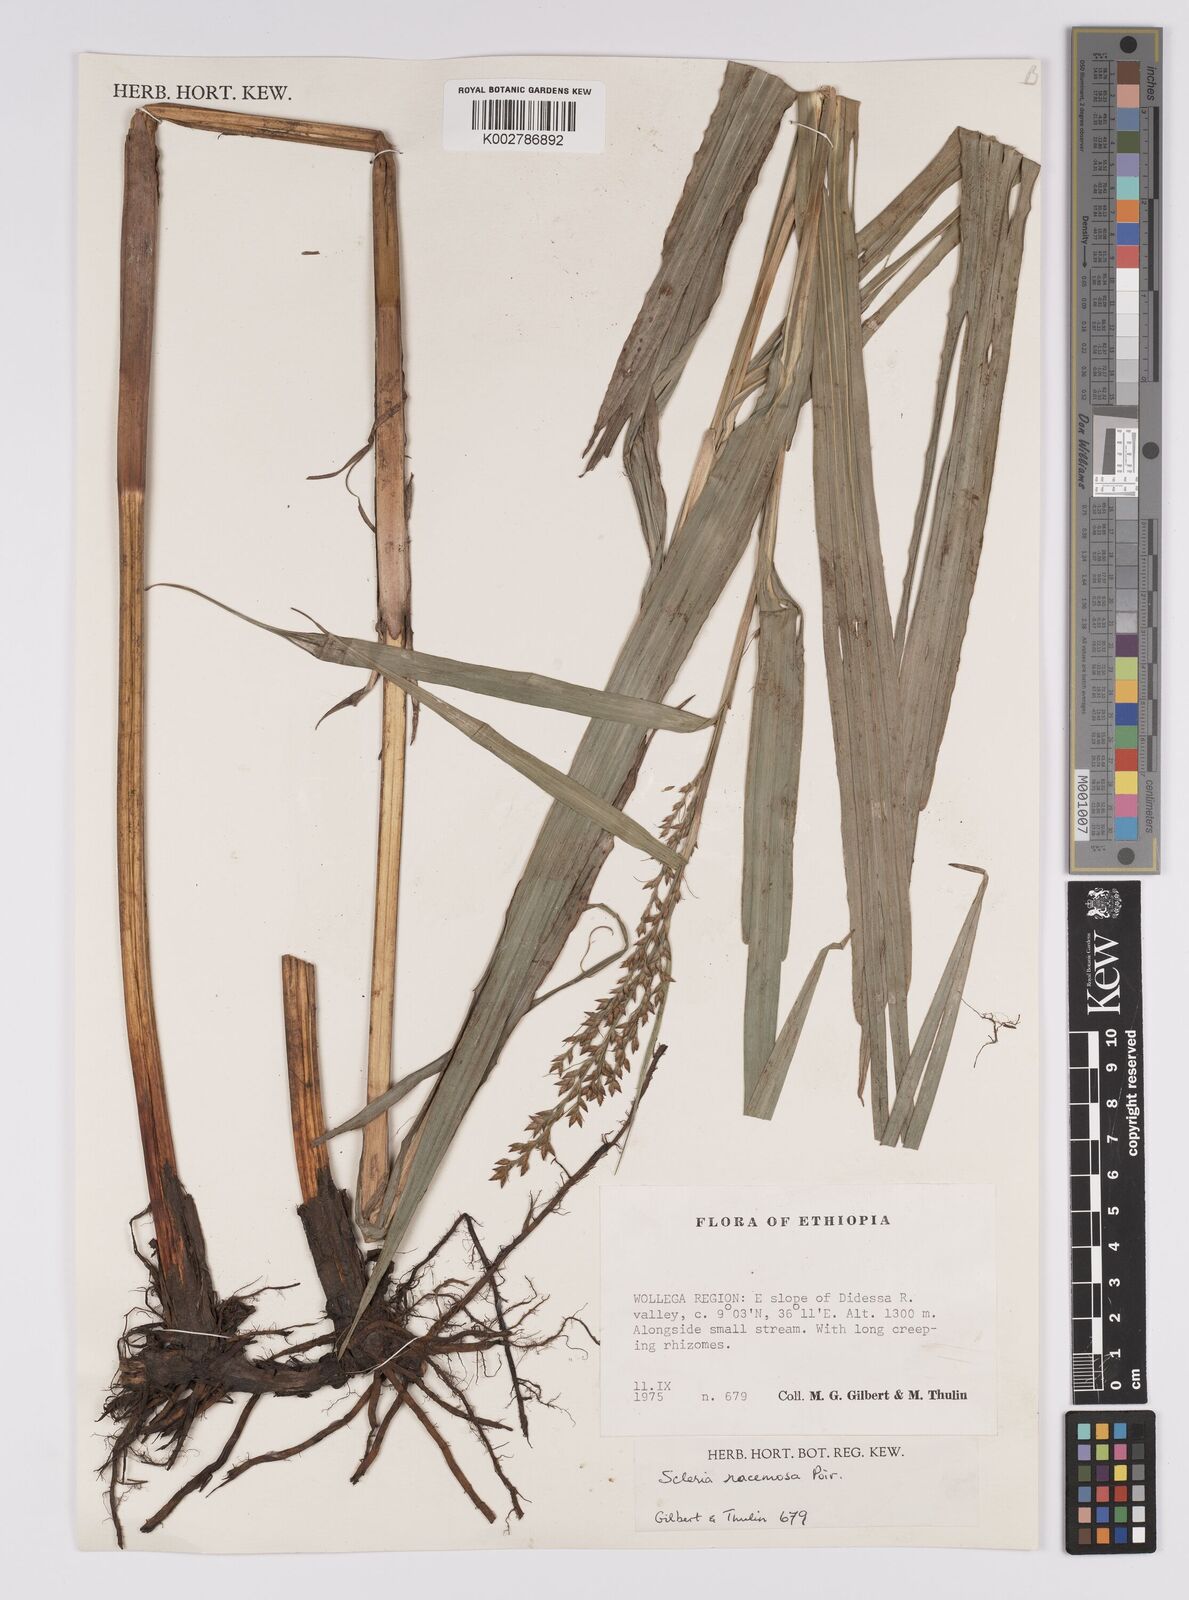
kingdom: Plantae
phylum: Tracheophyta
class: Liliopsida
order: Poales
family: Cyperaceae
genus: Scleria
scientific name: Scleria racemosa
